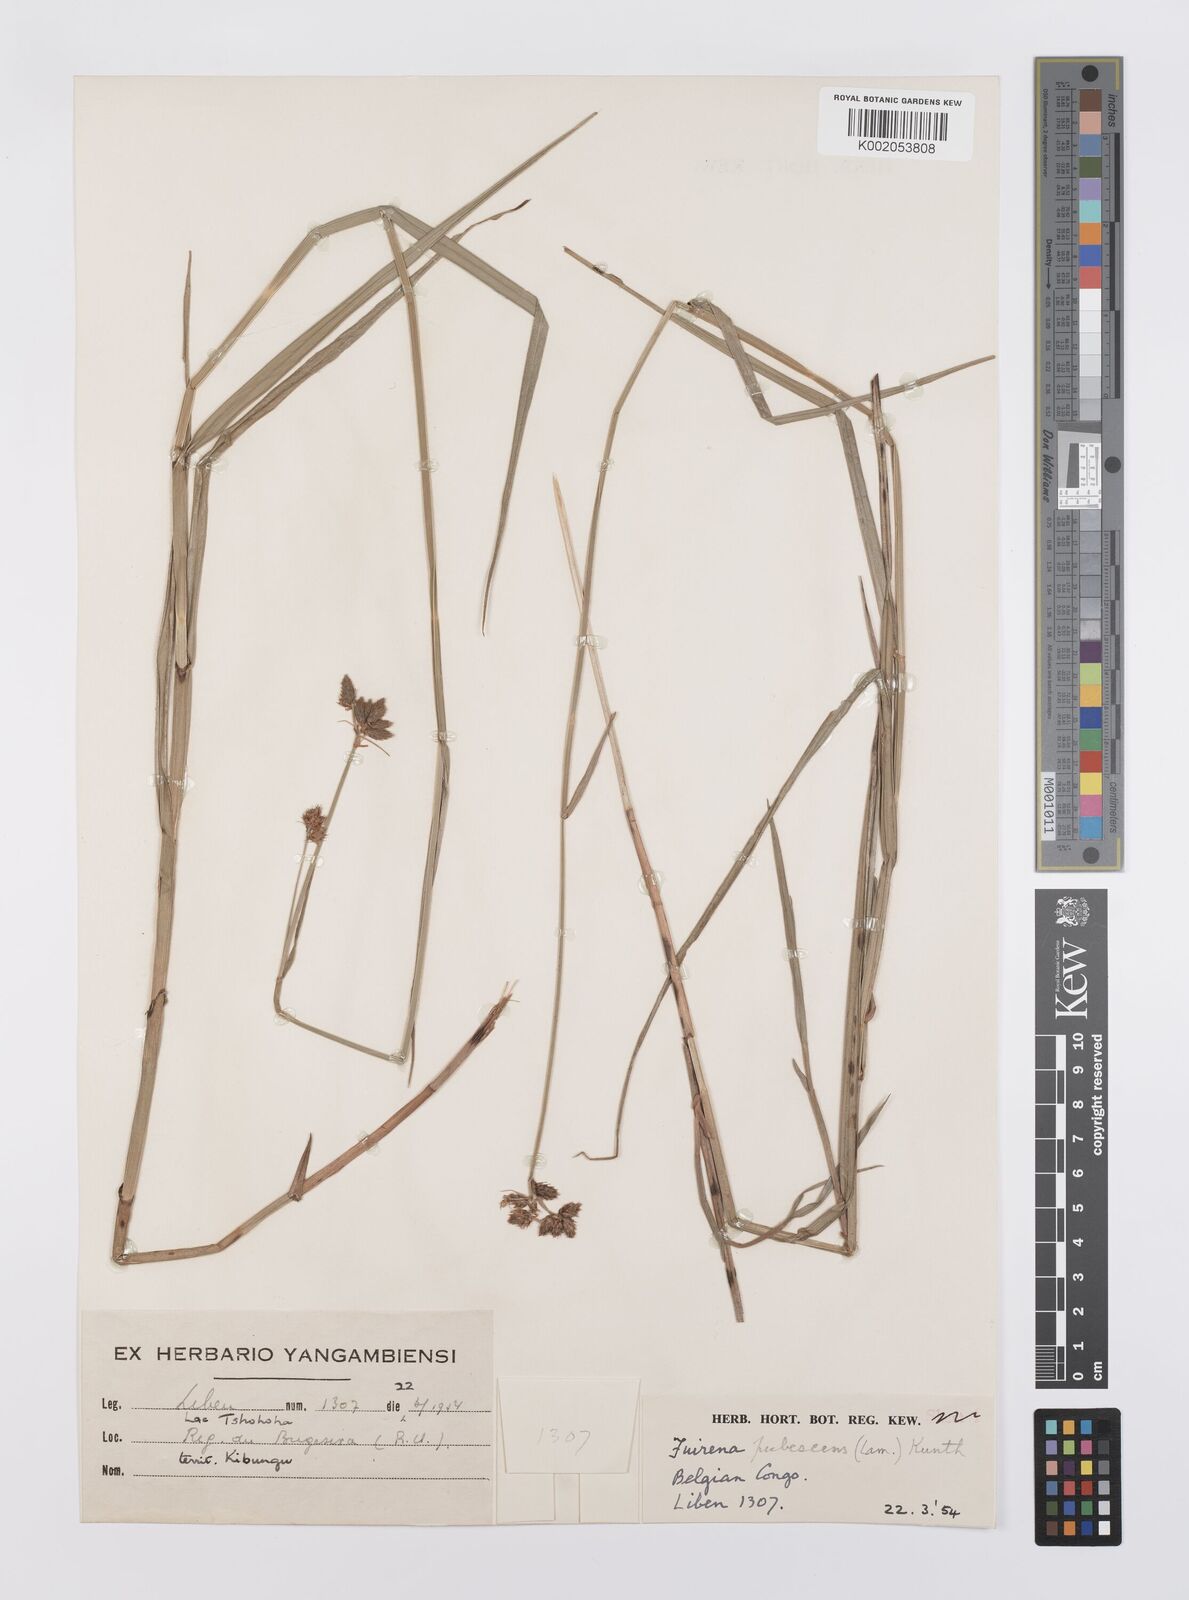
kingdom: Plantae
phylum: Tracheophyta
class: Liliopsida
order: Poales
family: Cyperaceae
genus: Fuirena
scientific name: Fuirena pubescens
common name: Hairy sedge
